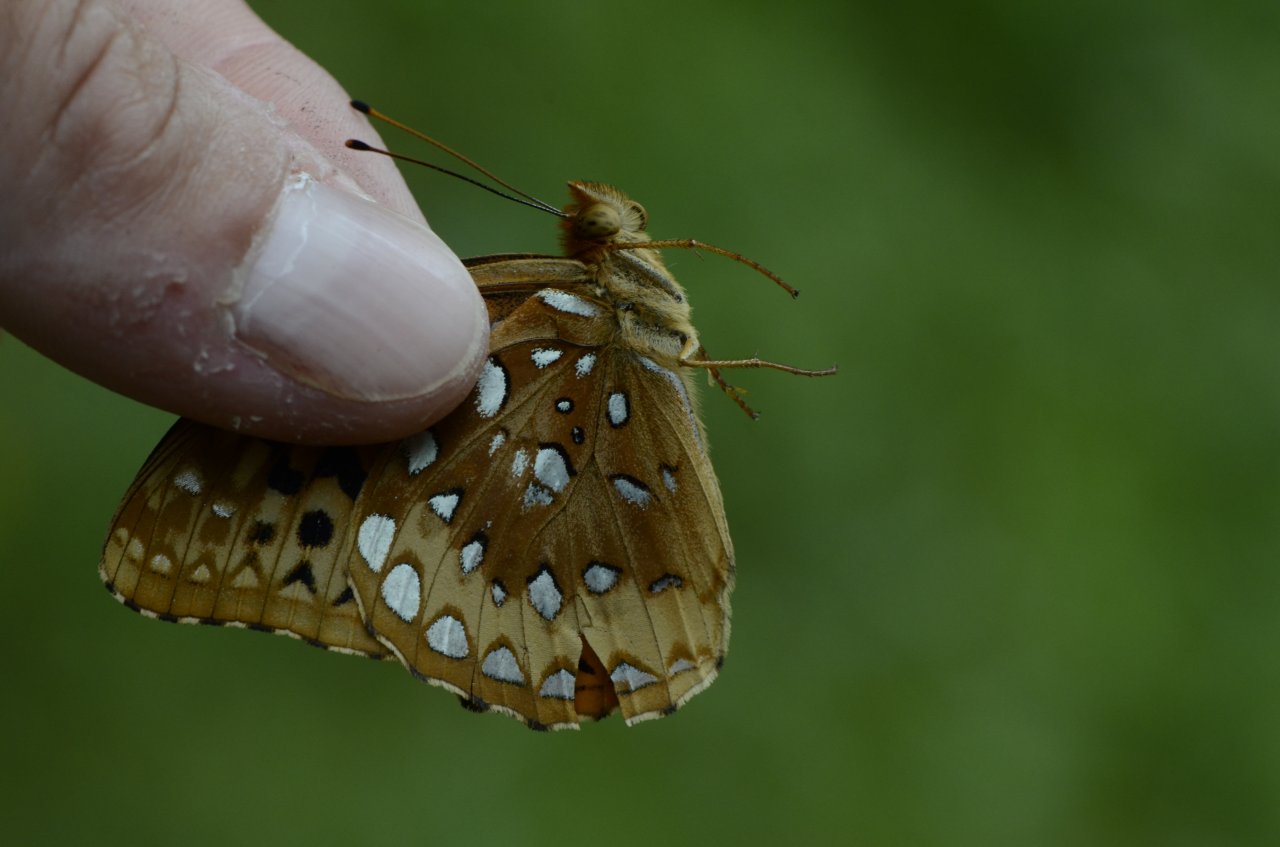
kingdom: Animalia
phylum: Arthropoda
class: Insecta
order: Lepidoptera
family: Nymphalidae
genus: Speyeria
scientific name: Speyeria cybele
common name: Great Spangled Fritillary
